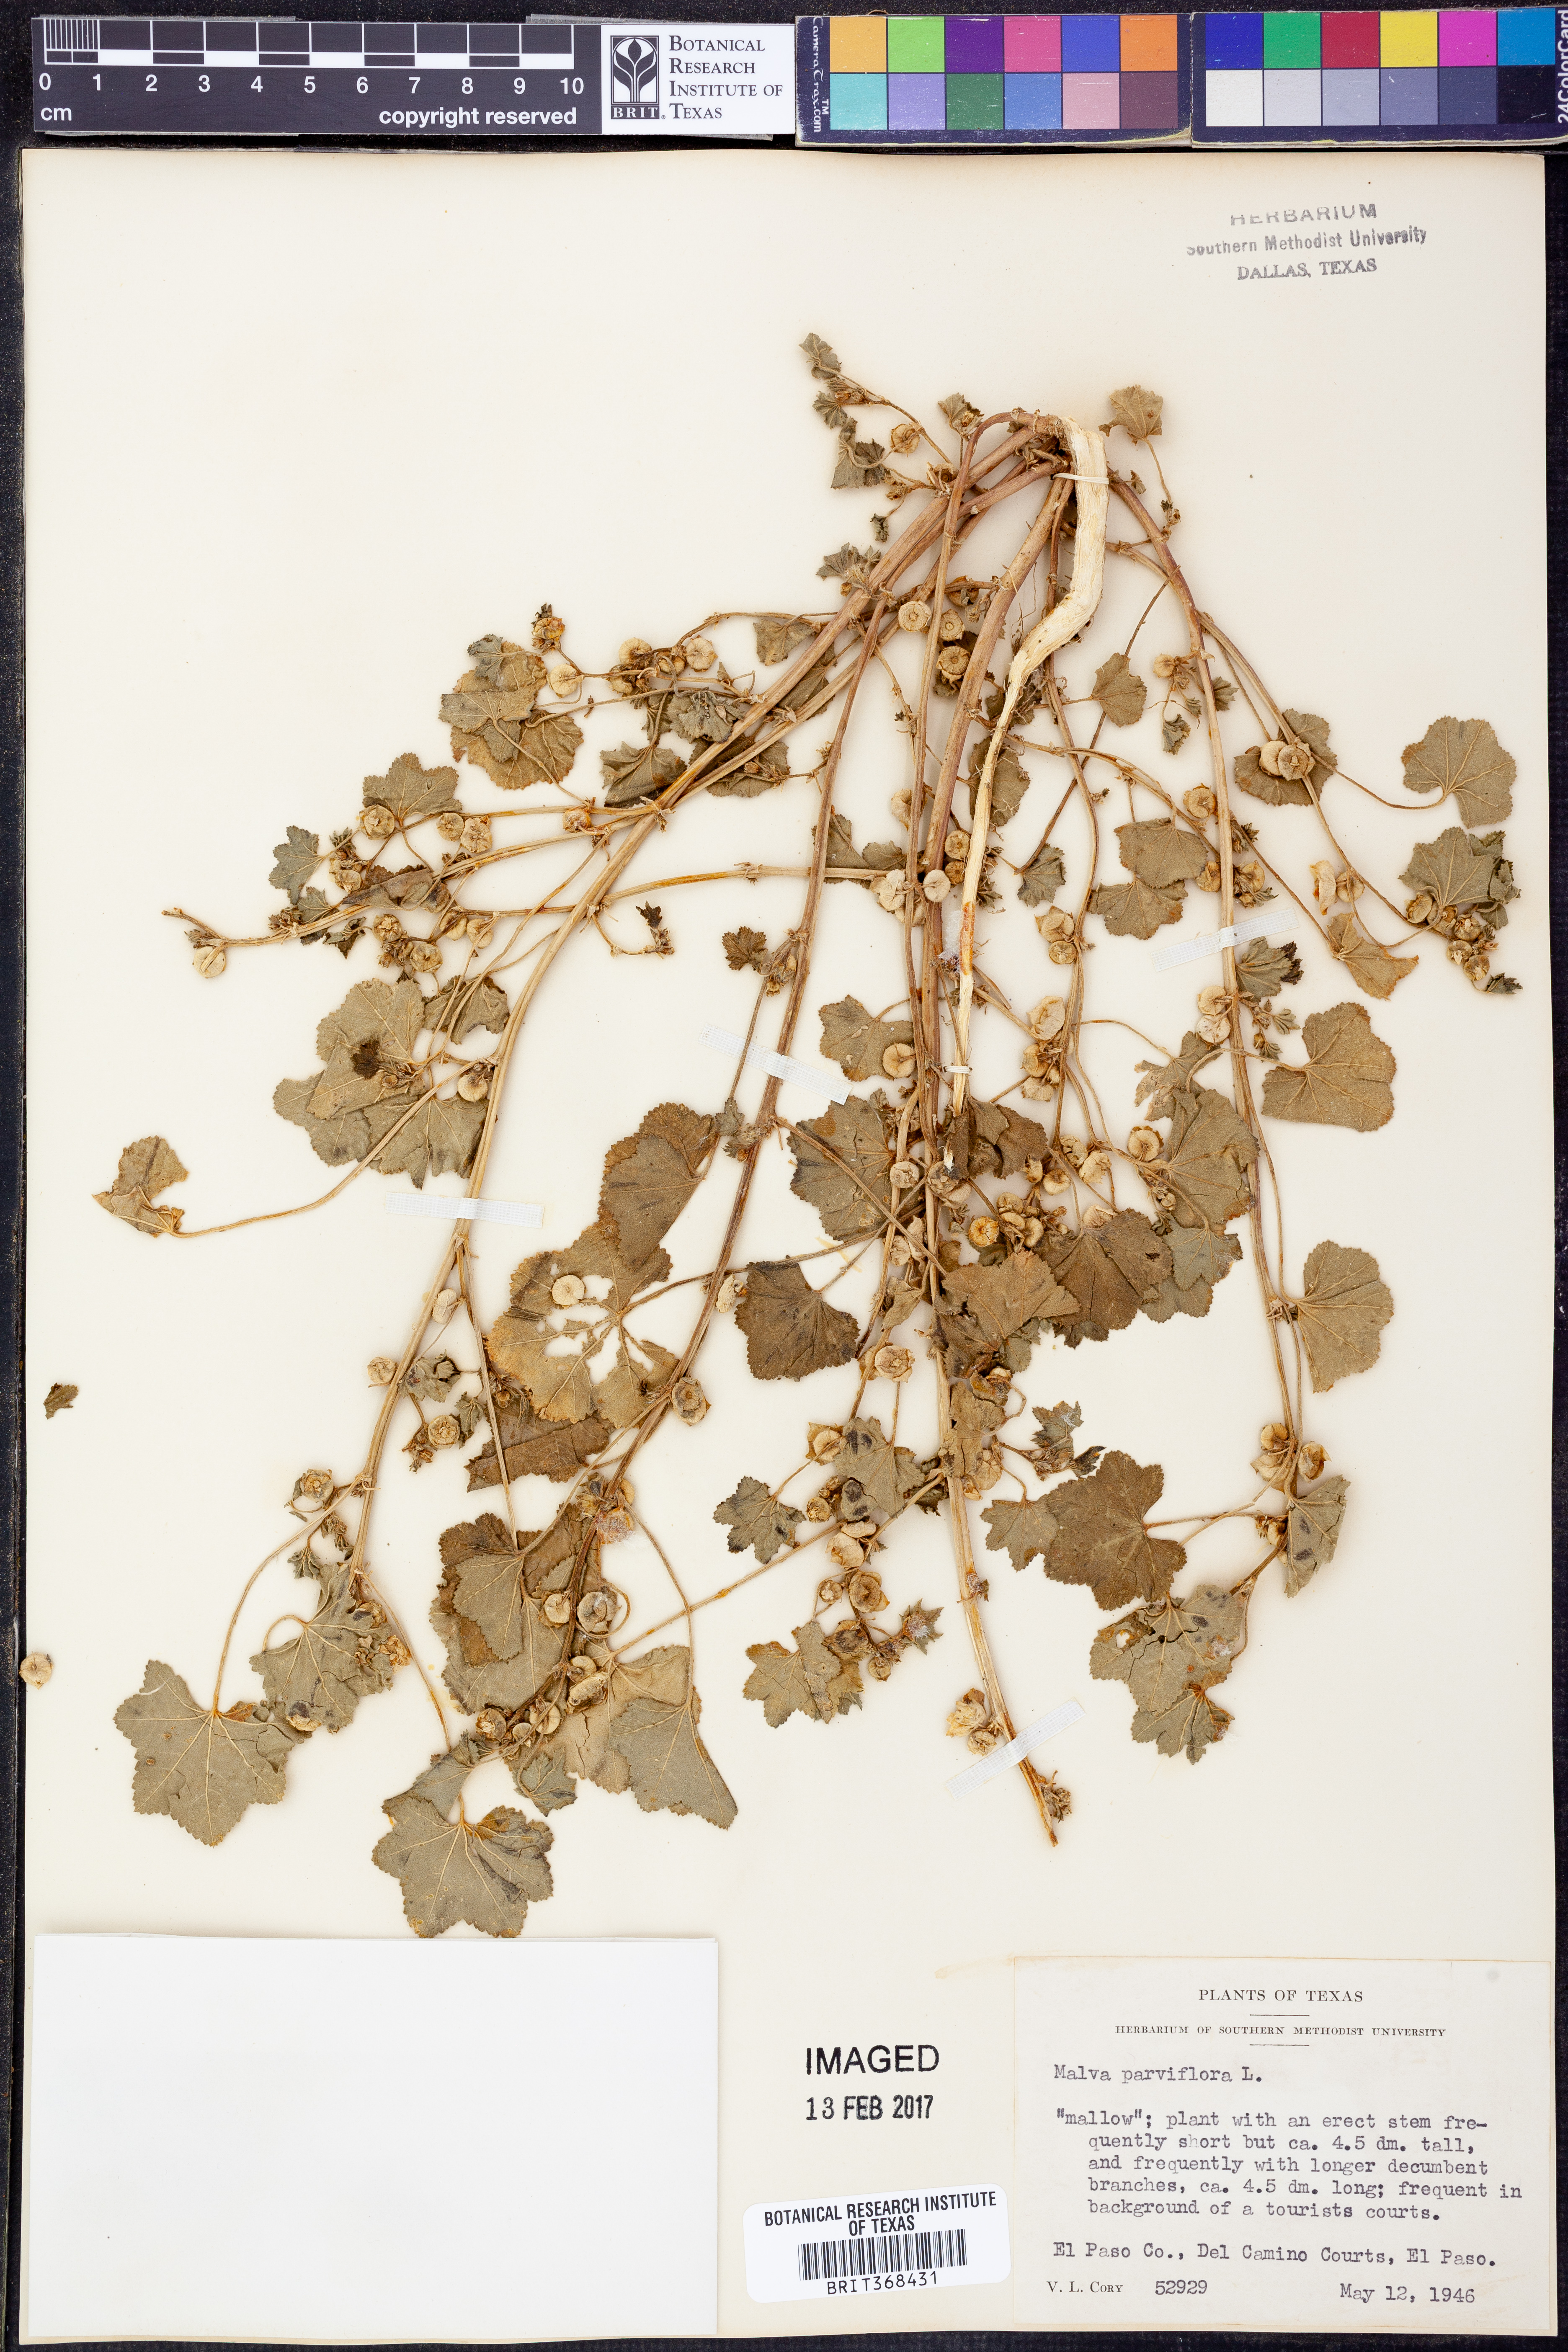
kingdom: Plantae
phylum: Tracheophyta
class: Magnoliopsida
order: Malvales
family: Malvaceae
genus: Malva
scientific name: Malva parviflora
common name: Least mallow
